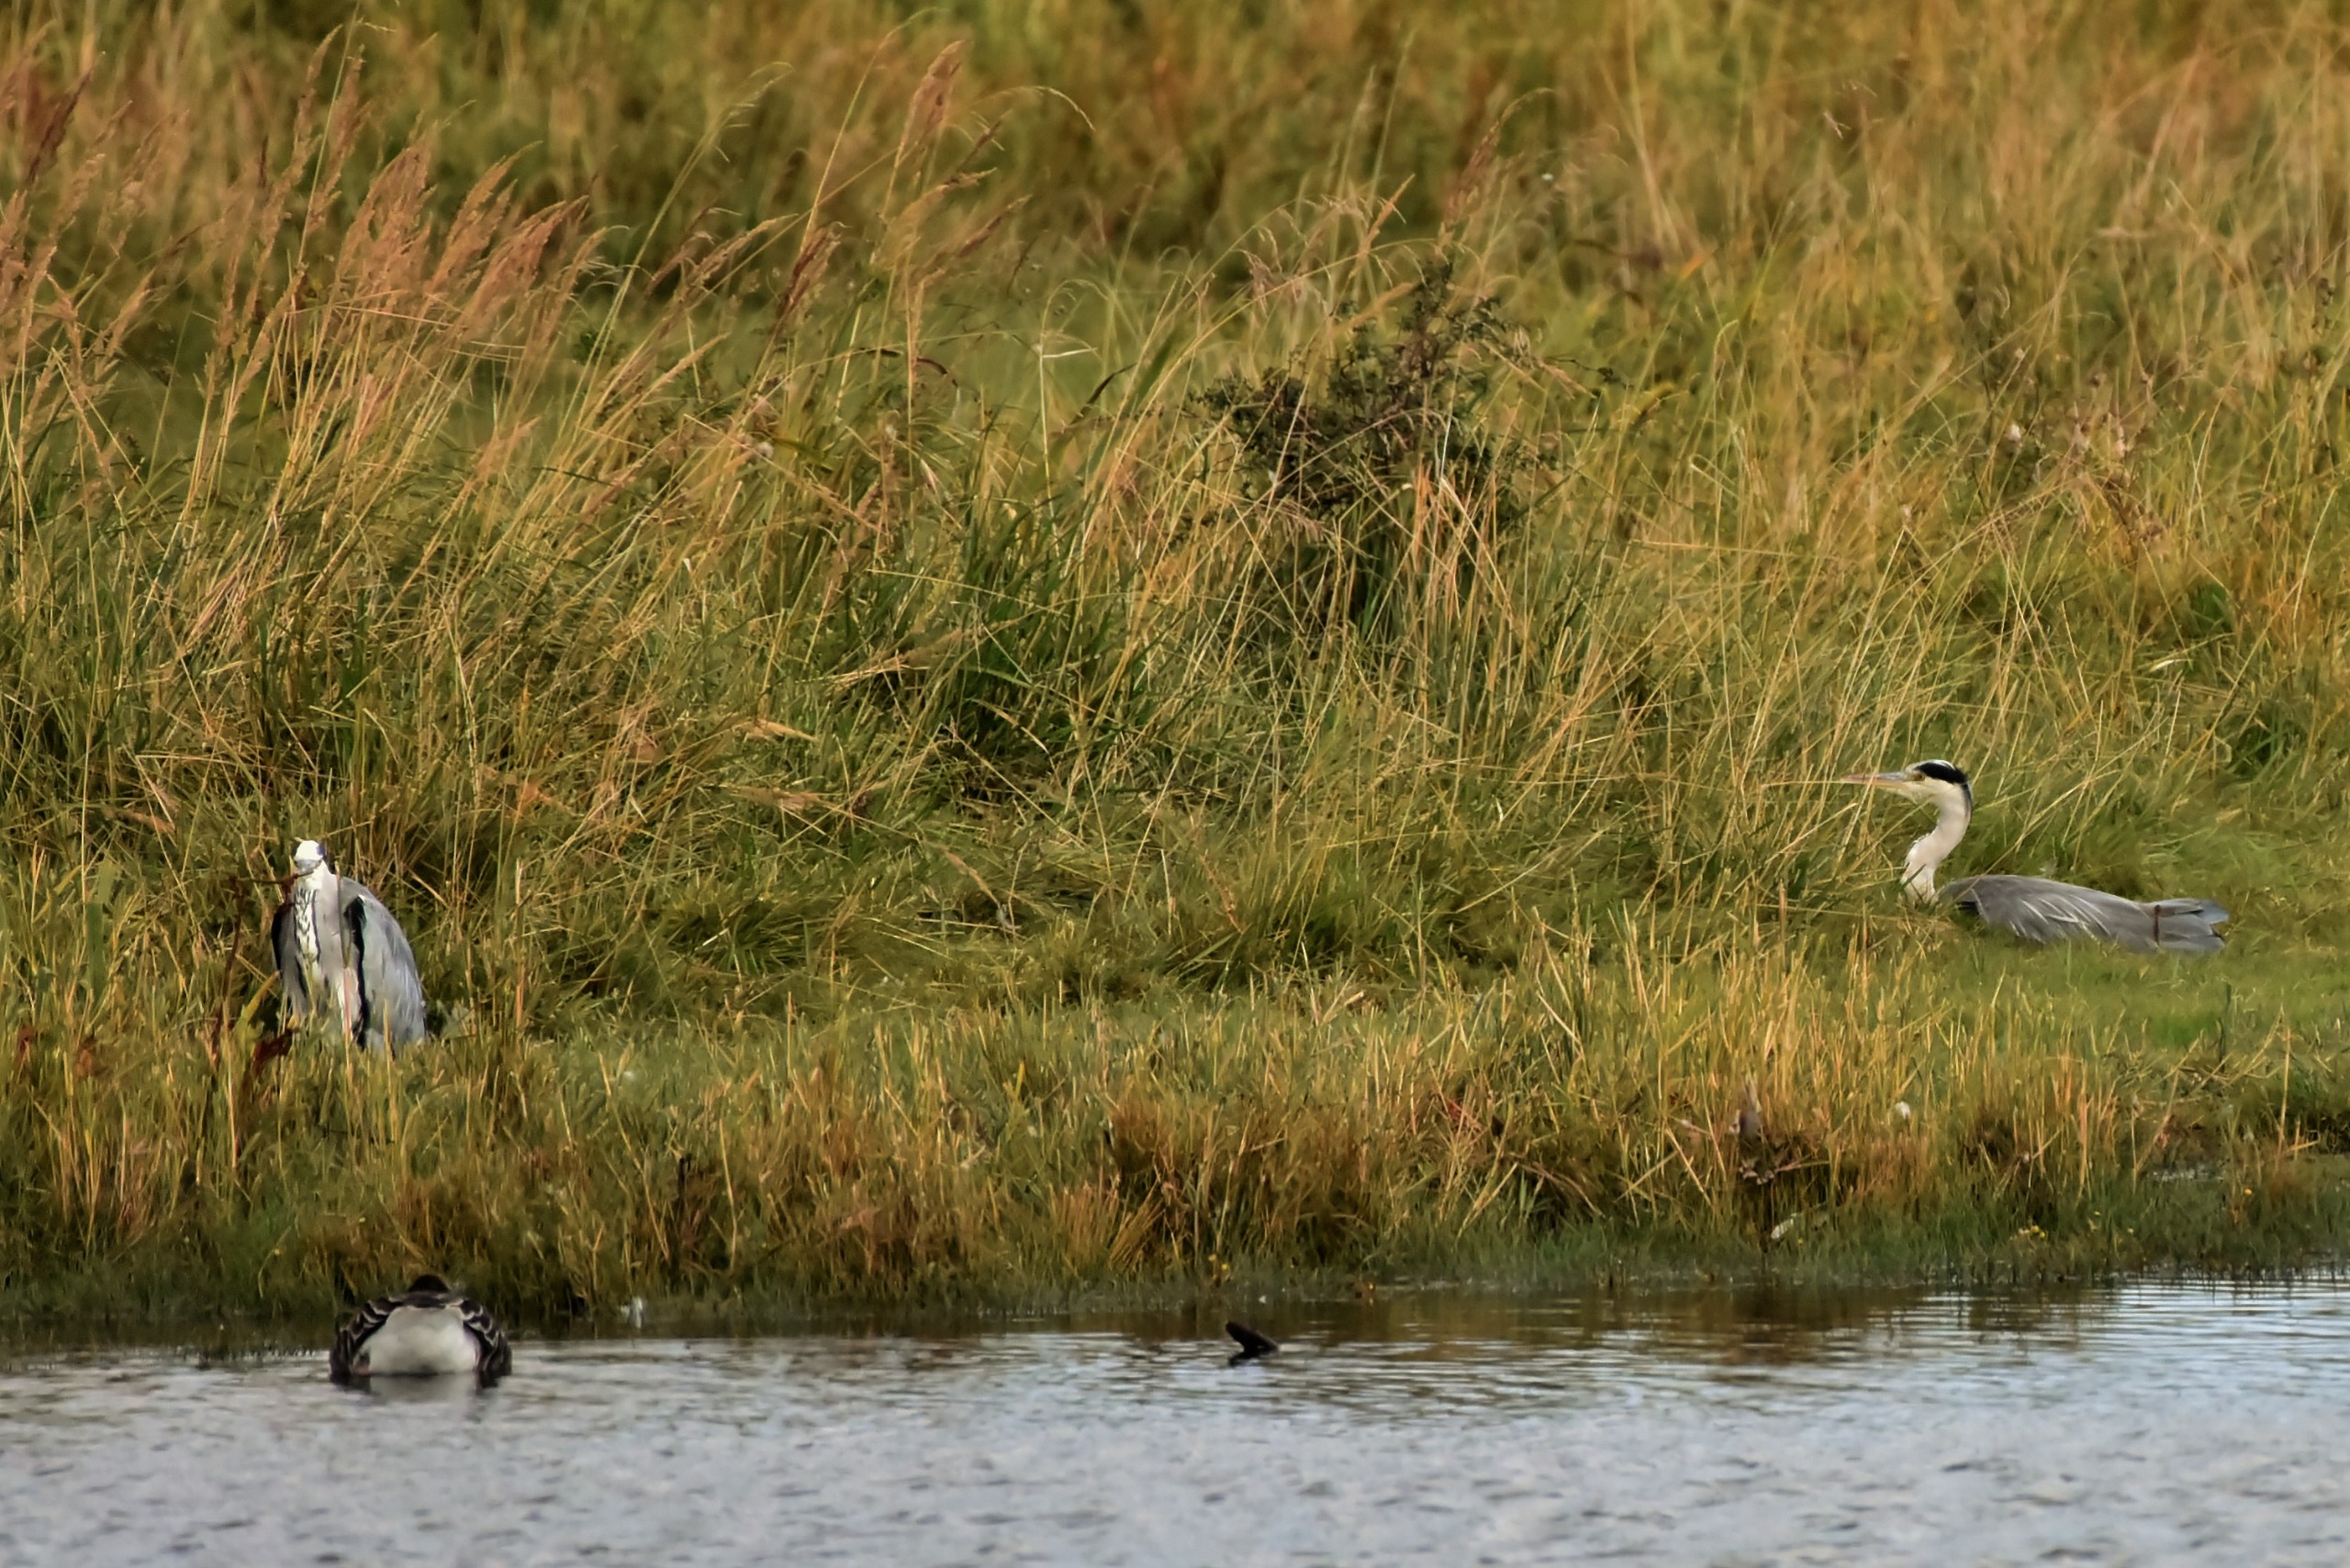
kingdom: Animalia
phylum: Chordata
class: Aves
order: Pelecaniformes
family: Ardeidae
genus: Ardea
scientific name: Ardea cinerea
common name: Fiskehejre
